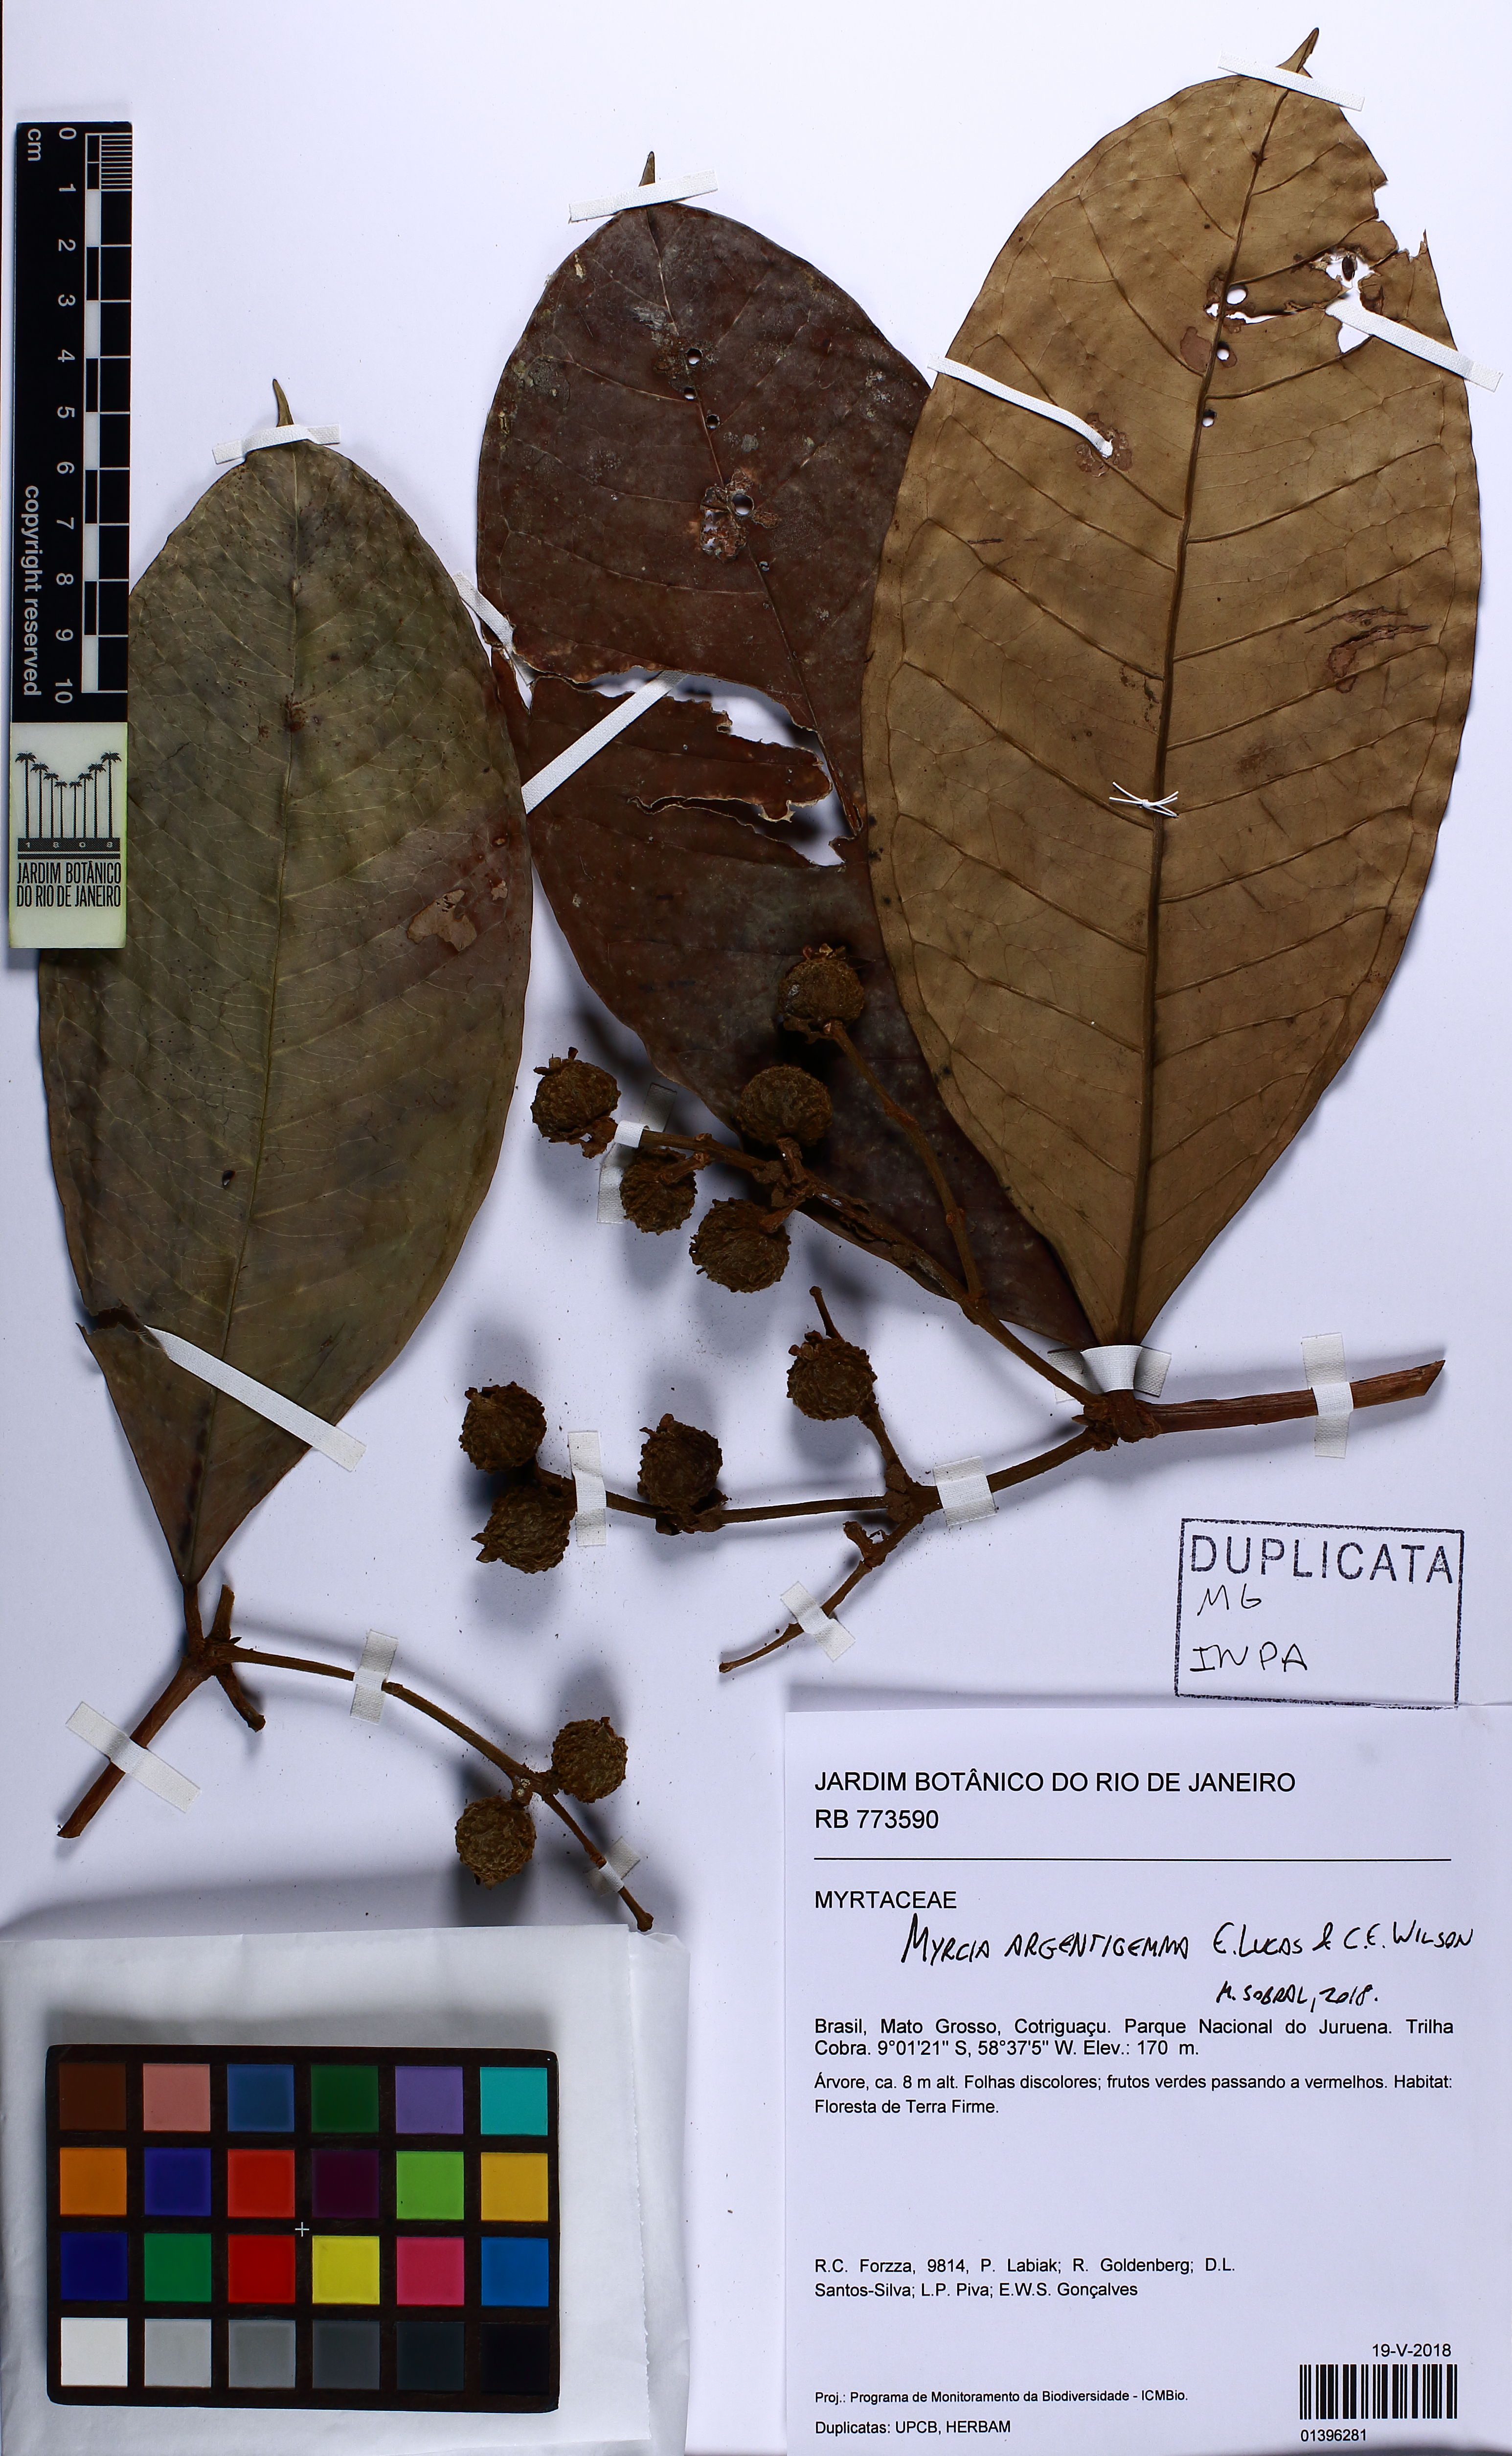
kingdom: Plantae
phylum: Tracheophyta
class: Magnoliopsida
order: Myrtales
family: Myrtaceae
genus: Myrcia
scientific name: Myrcia argentigemma
